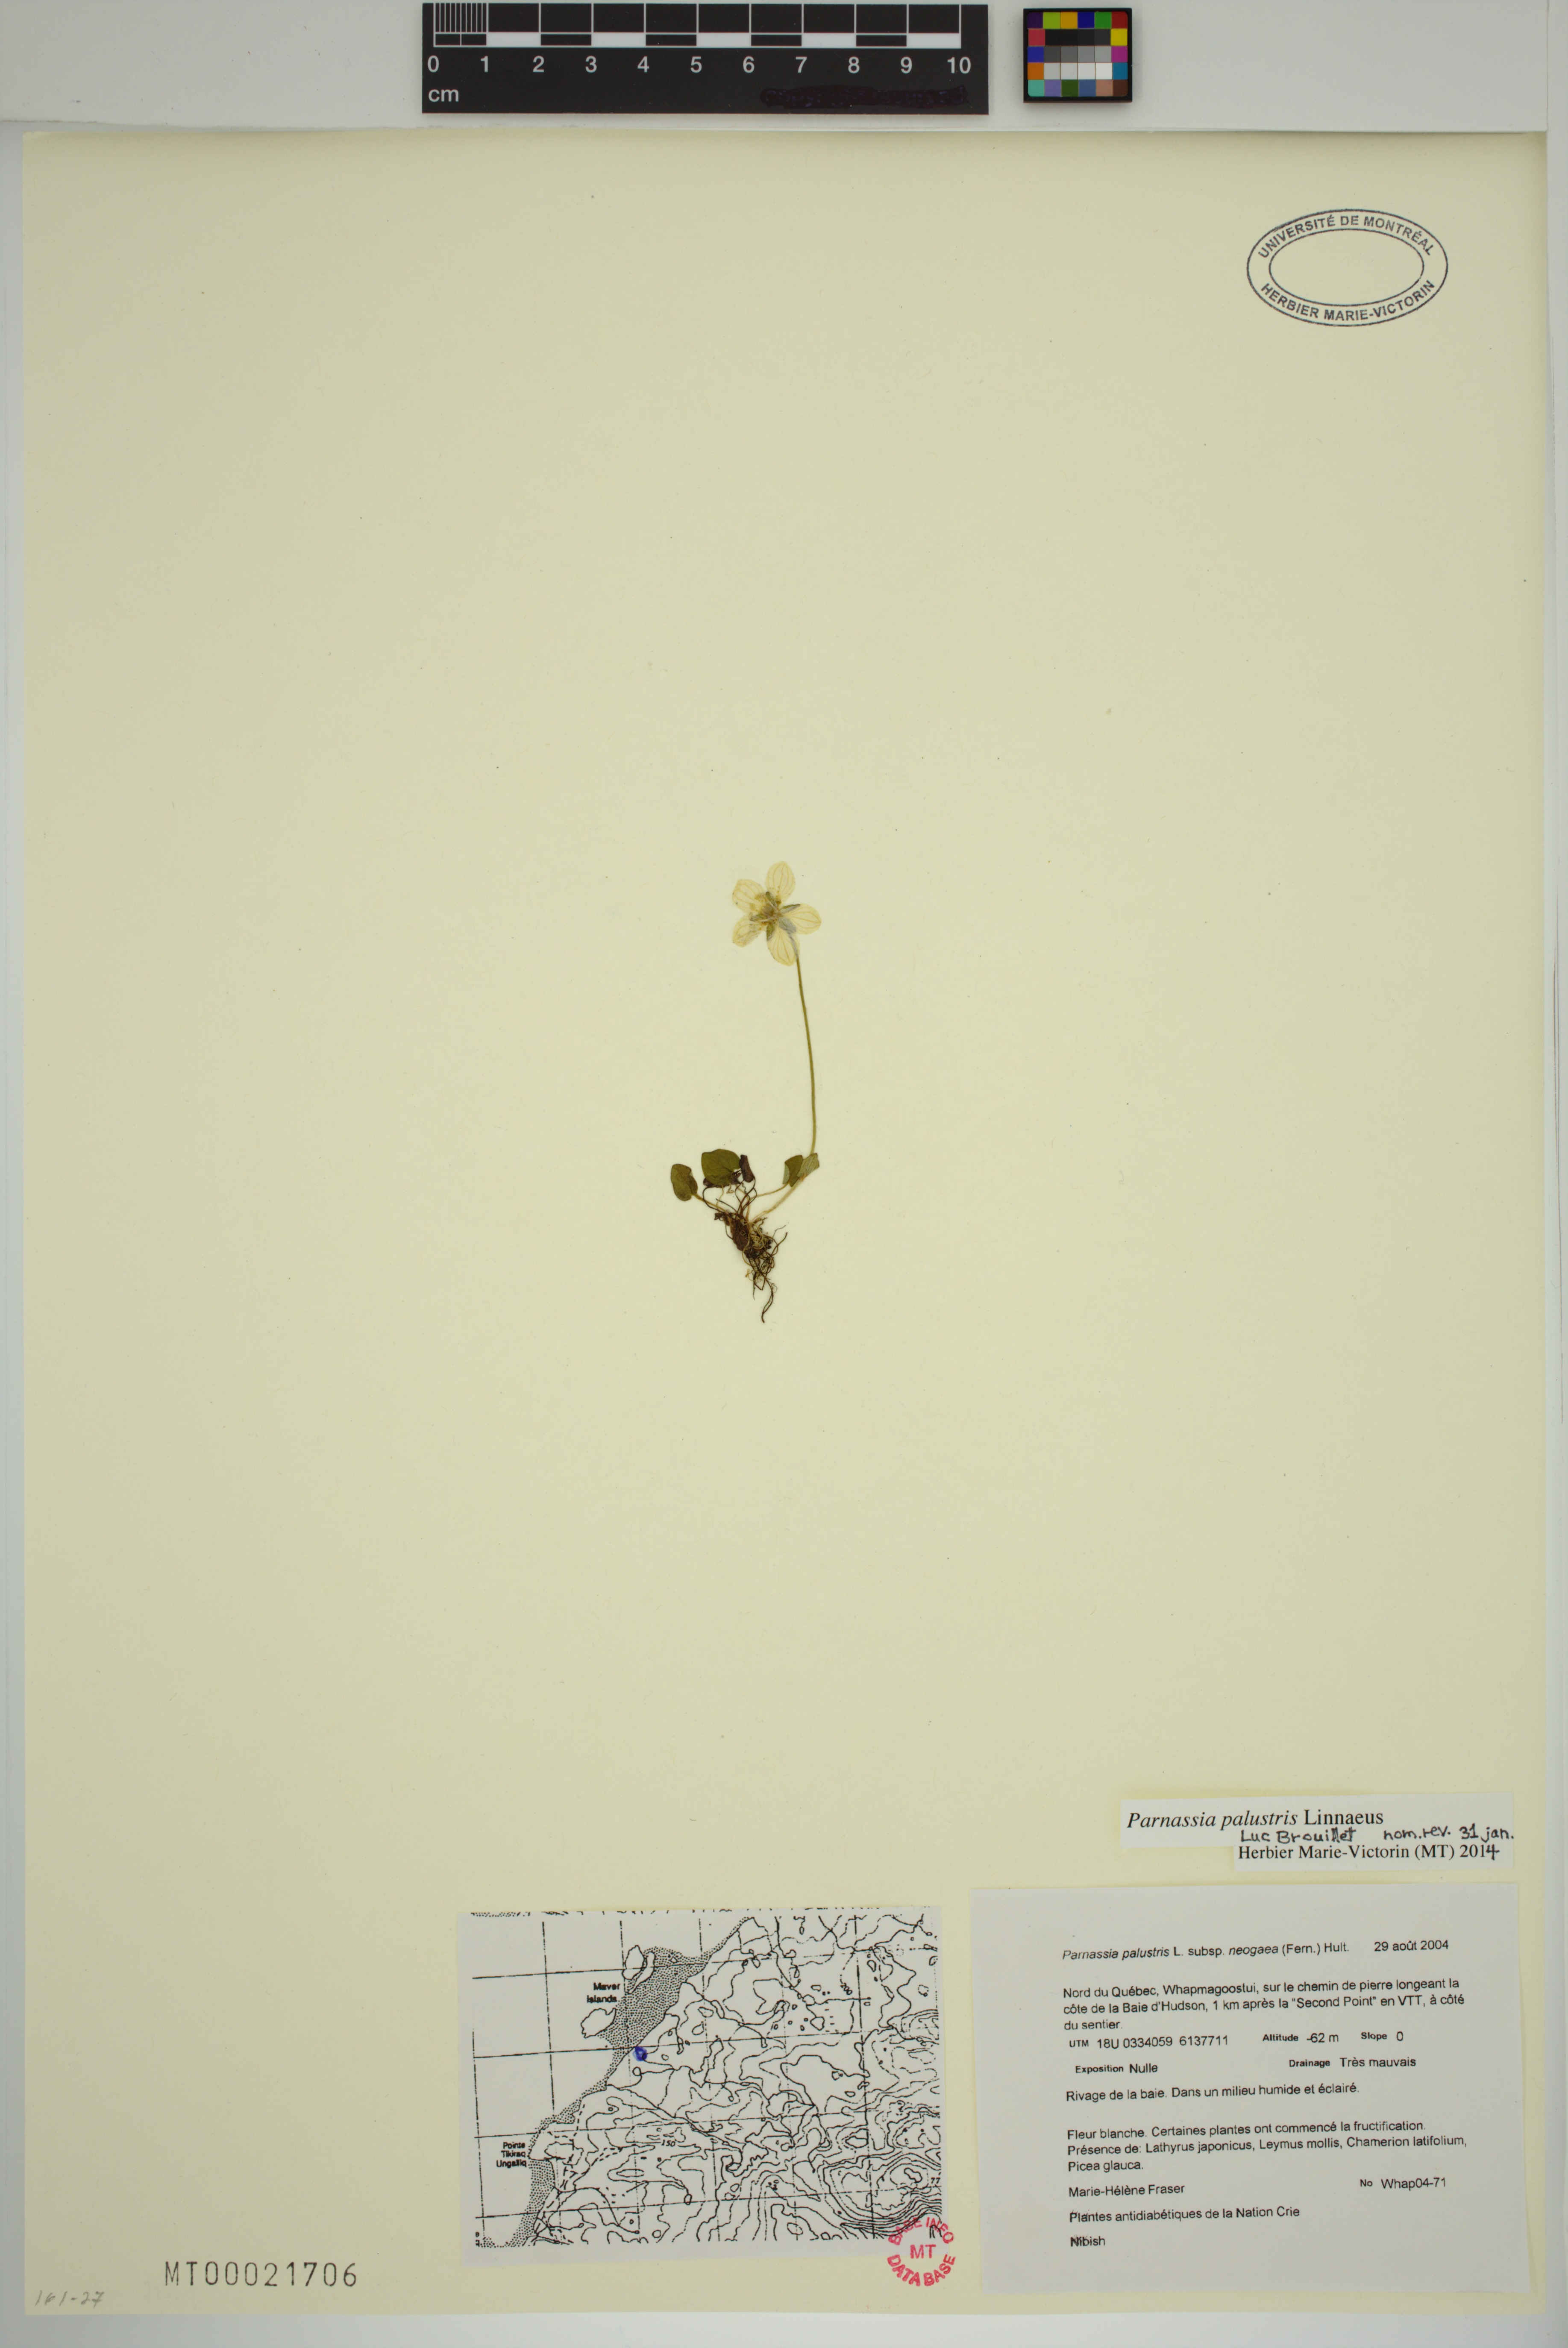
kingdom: Plantae
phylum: Tracheophyta
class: Magnoliopsida
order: Celastrales
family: Parnassiaceae
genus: Parnassia
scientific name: Parnassia palustris
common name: Grass-of-parnassus
